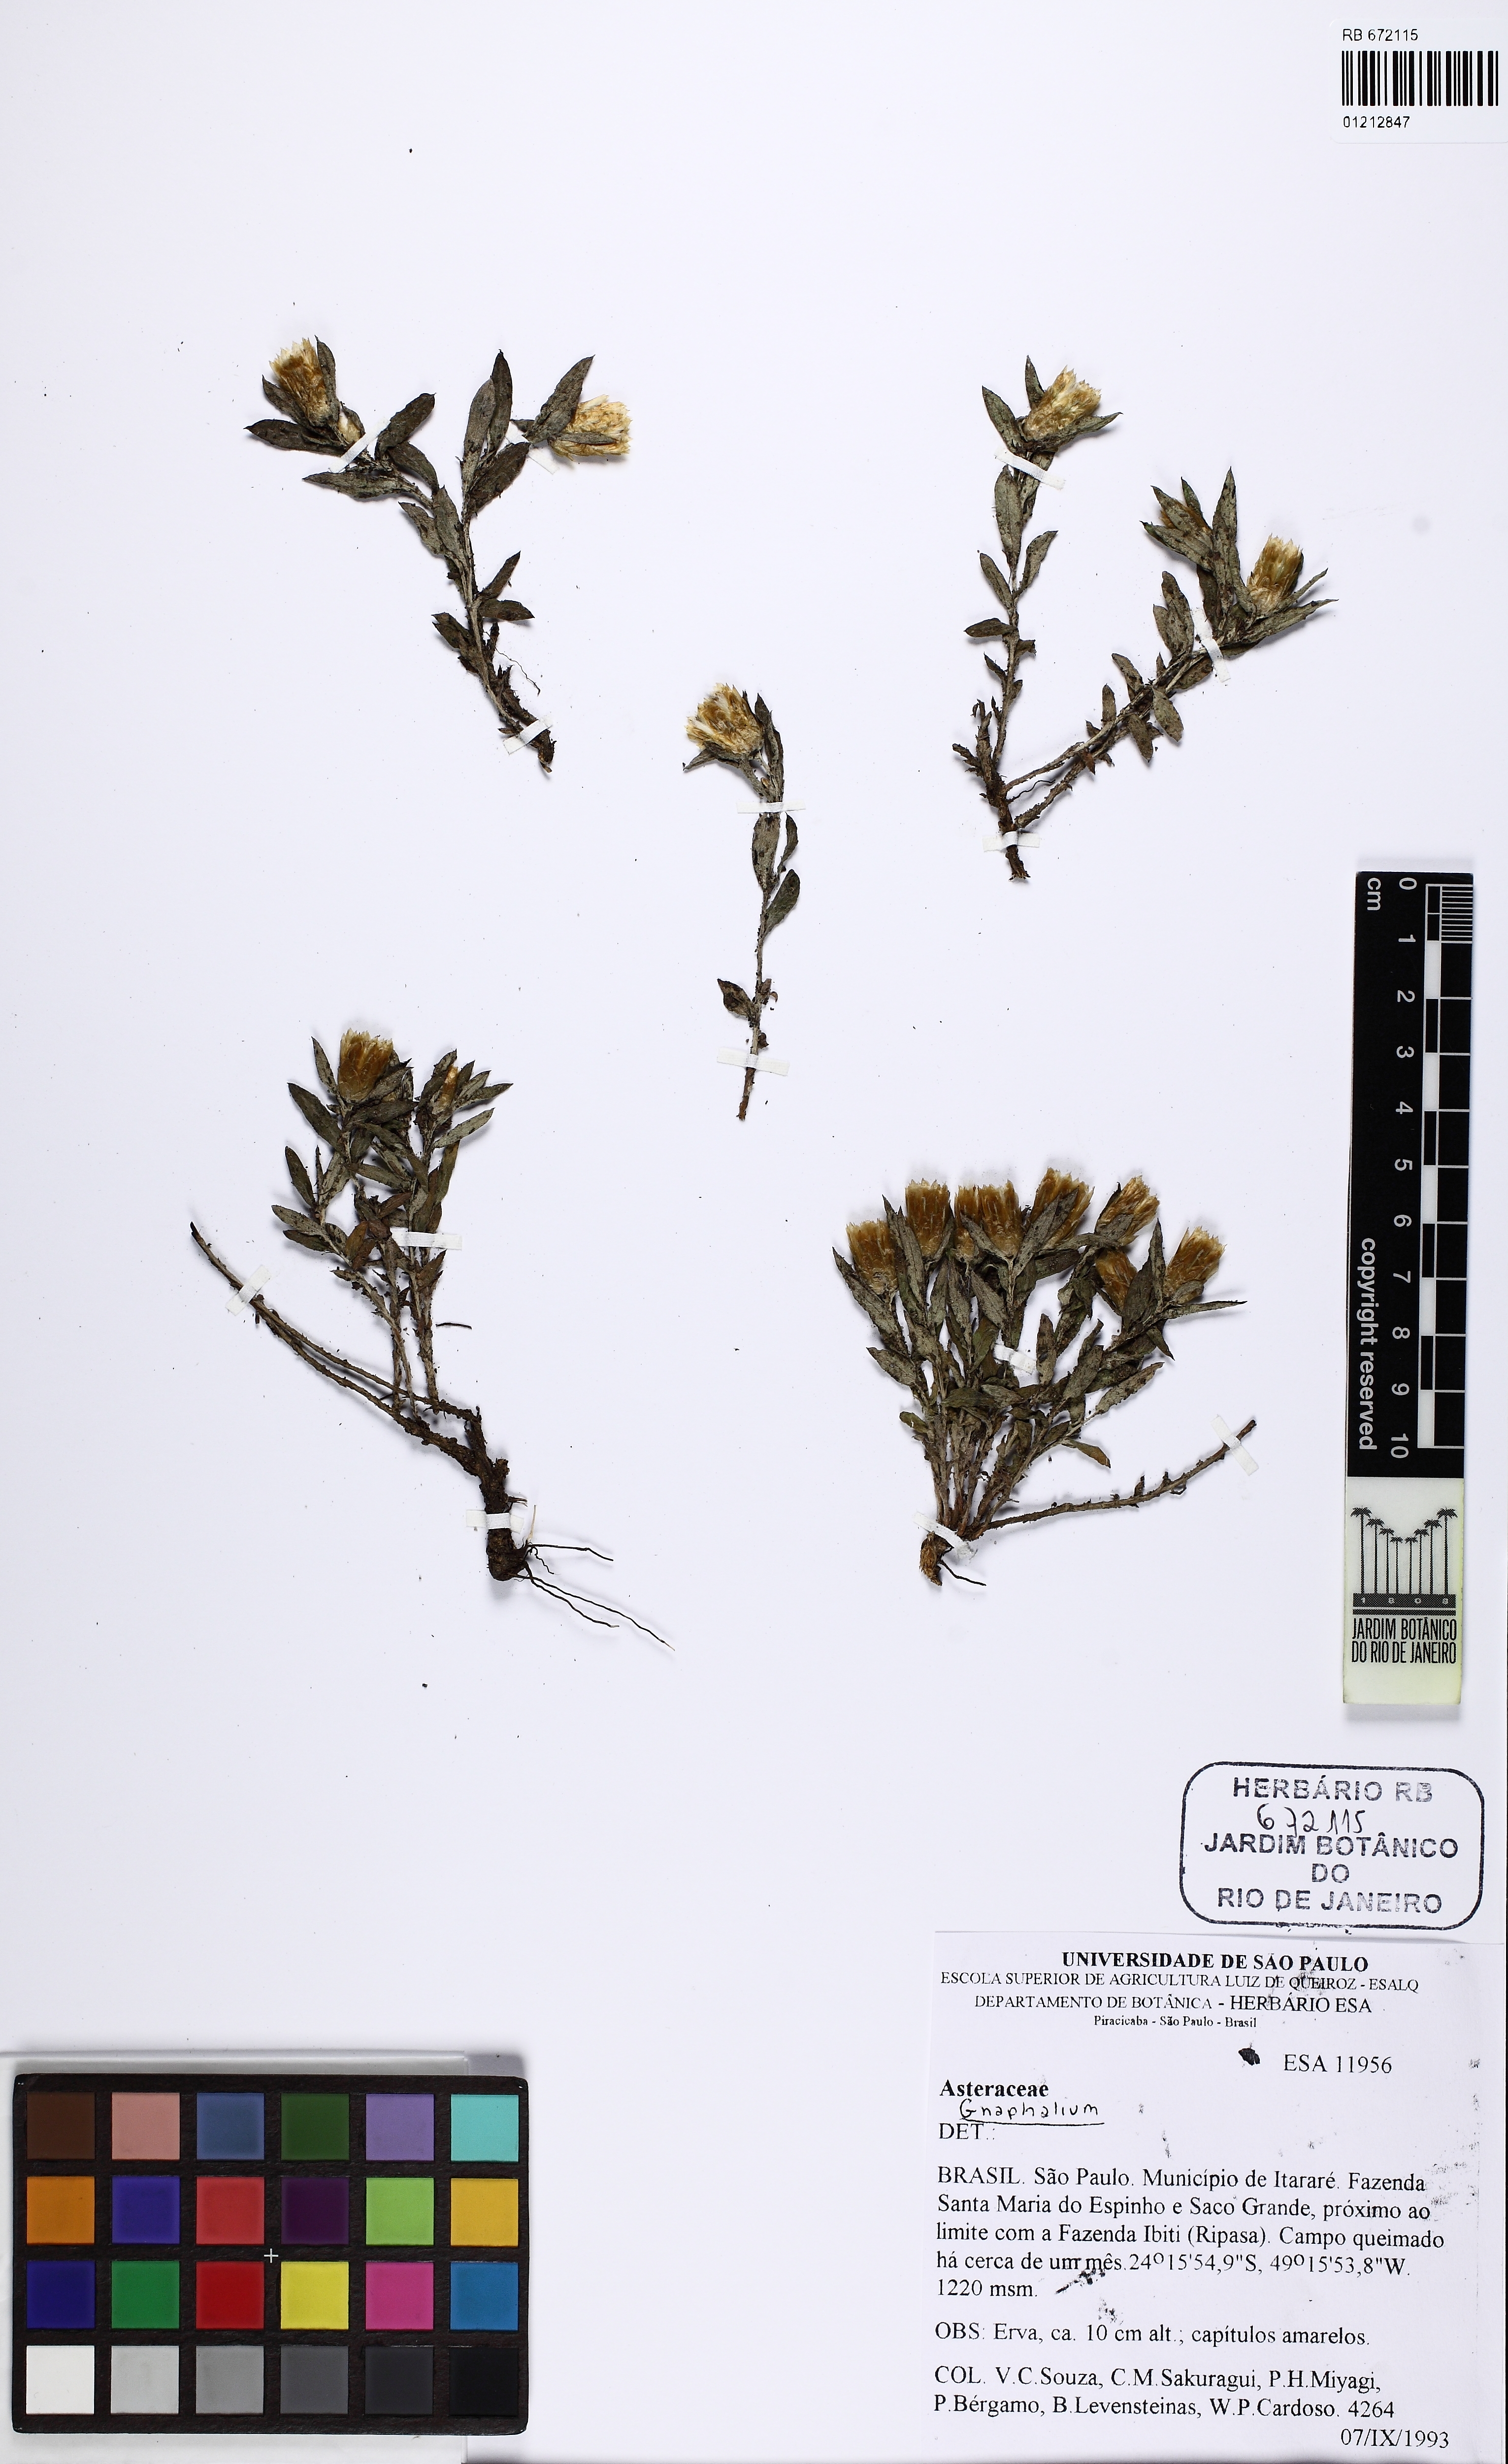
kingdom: Plantae
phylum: Tracheophyta
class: Magnoliopsida
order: Asterales
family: Asteraceae
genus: Gnaphalium
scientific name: Gnaphalium
